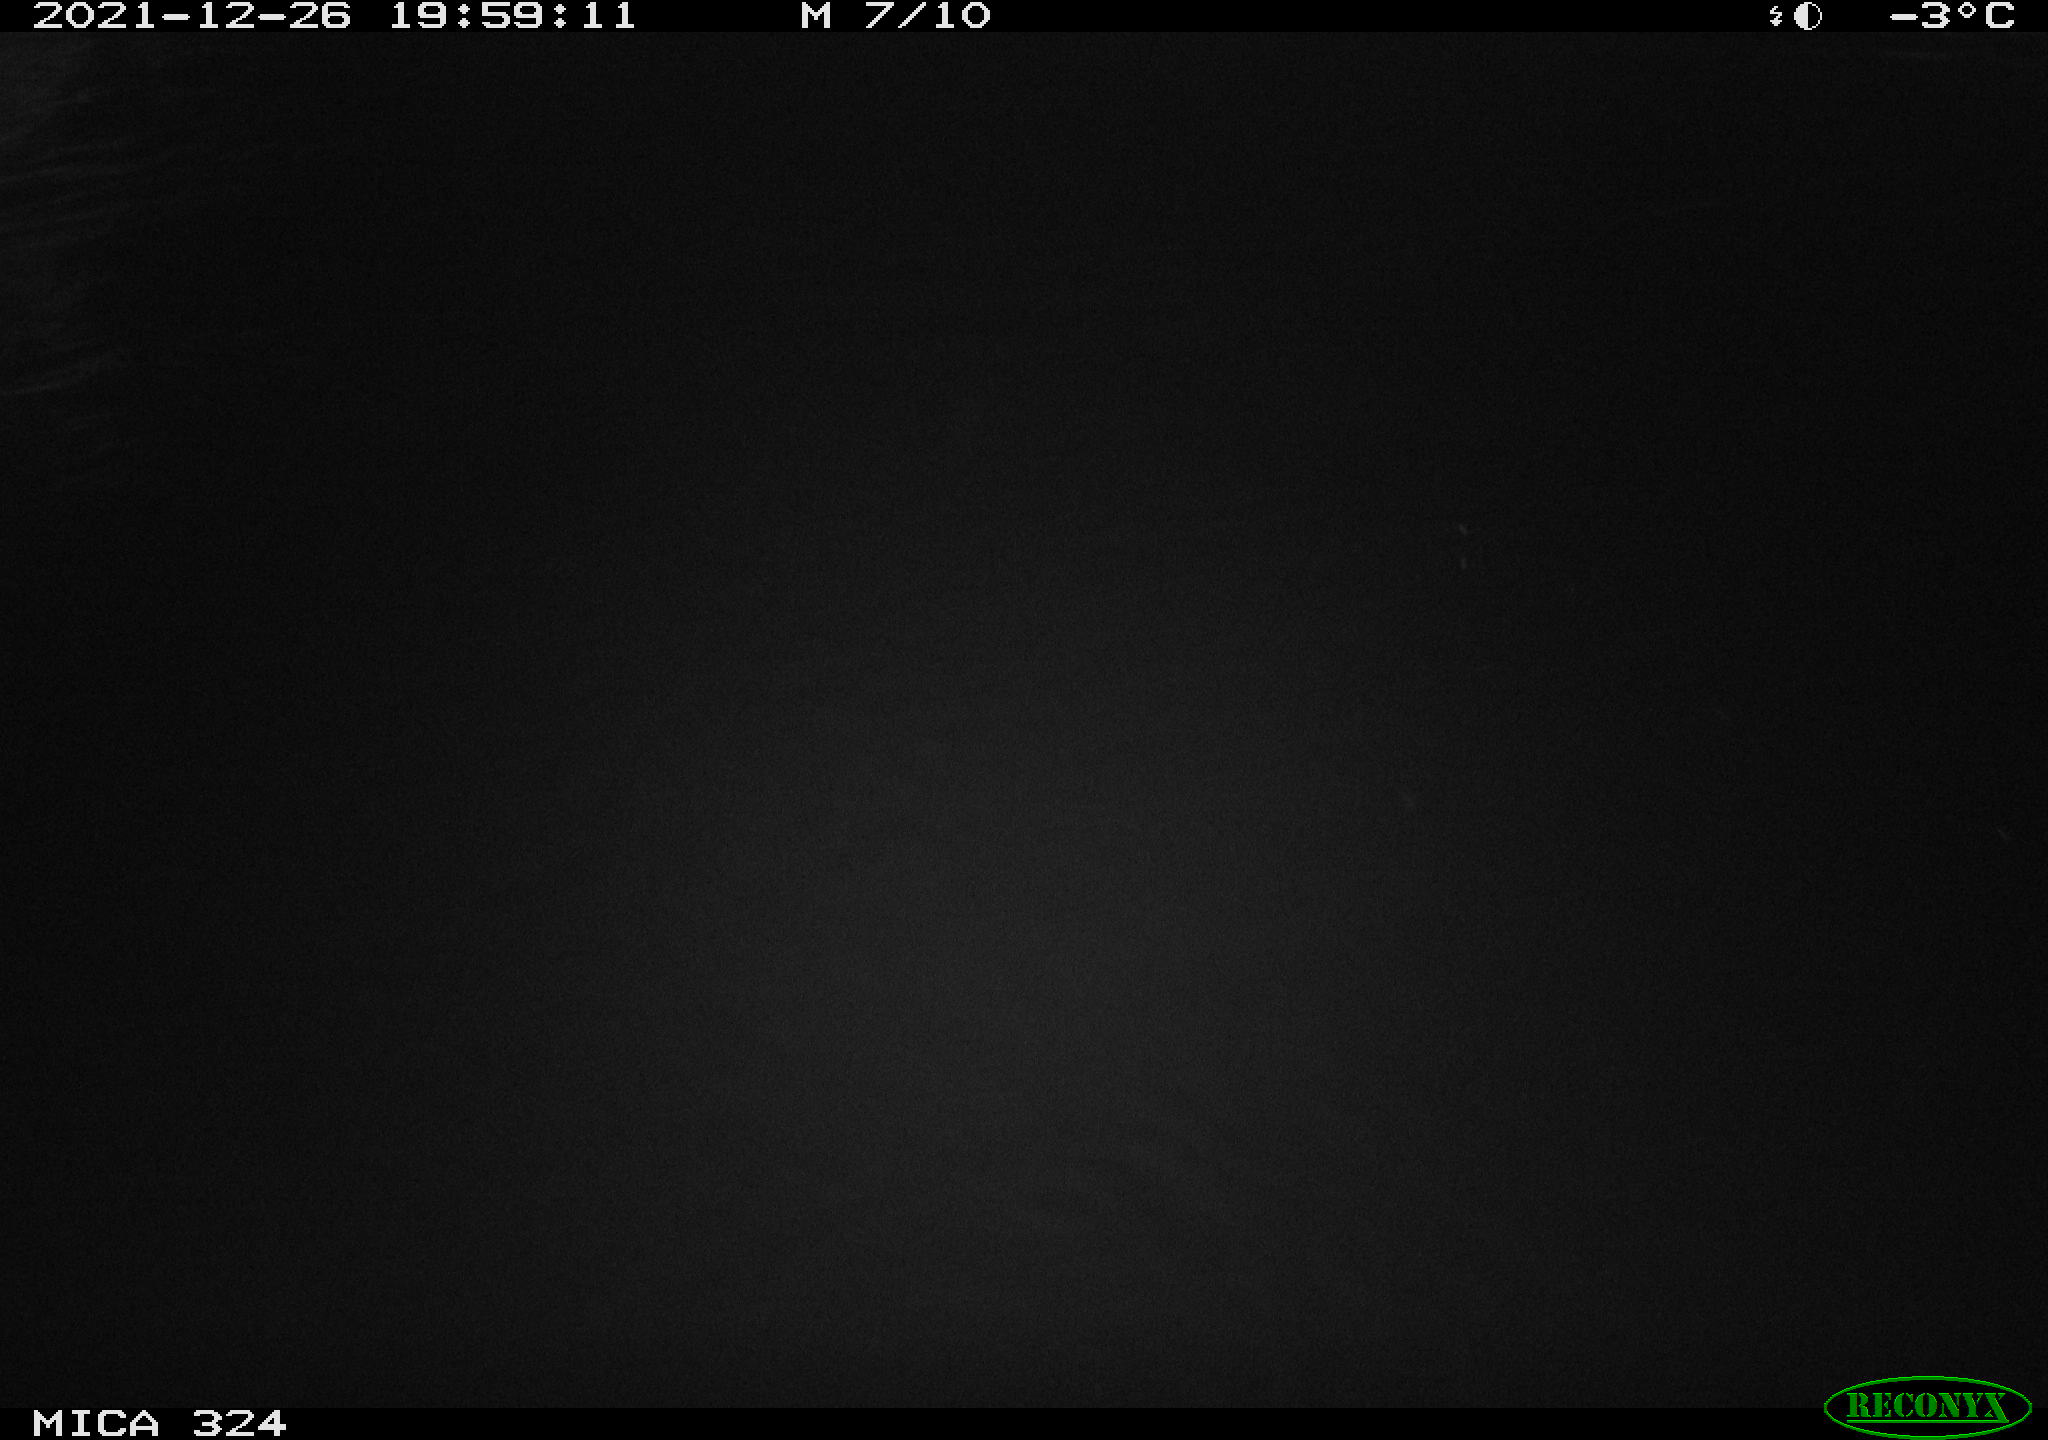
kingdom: Animalia
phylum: Chordata
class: Aves
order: Anseriformes
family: Anatidae
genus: Anas
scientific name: Anas platyrhynchos
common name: Mallard
